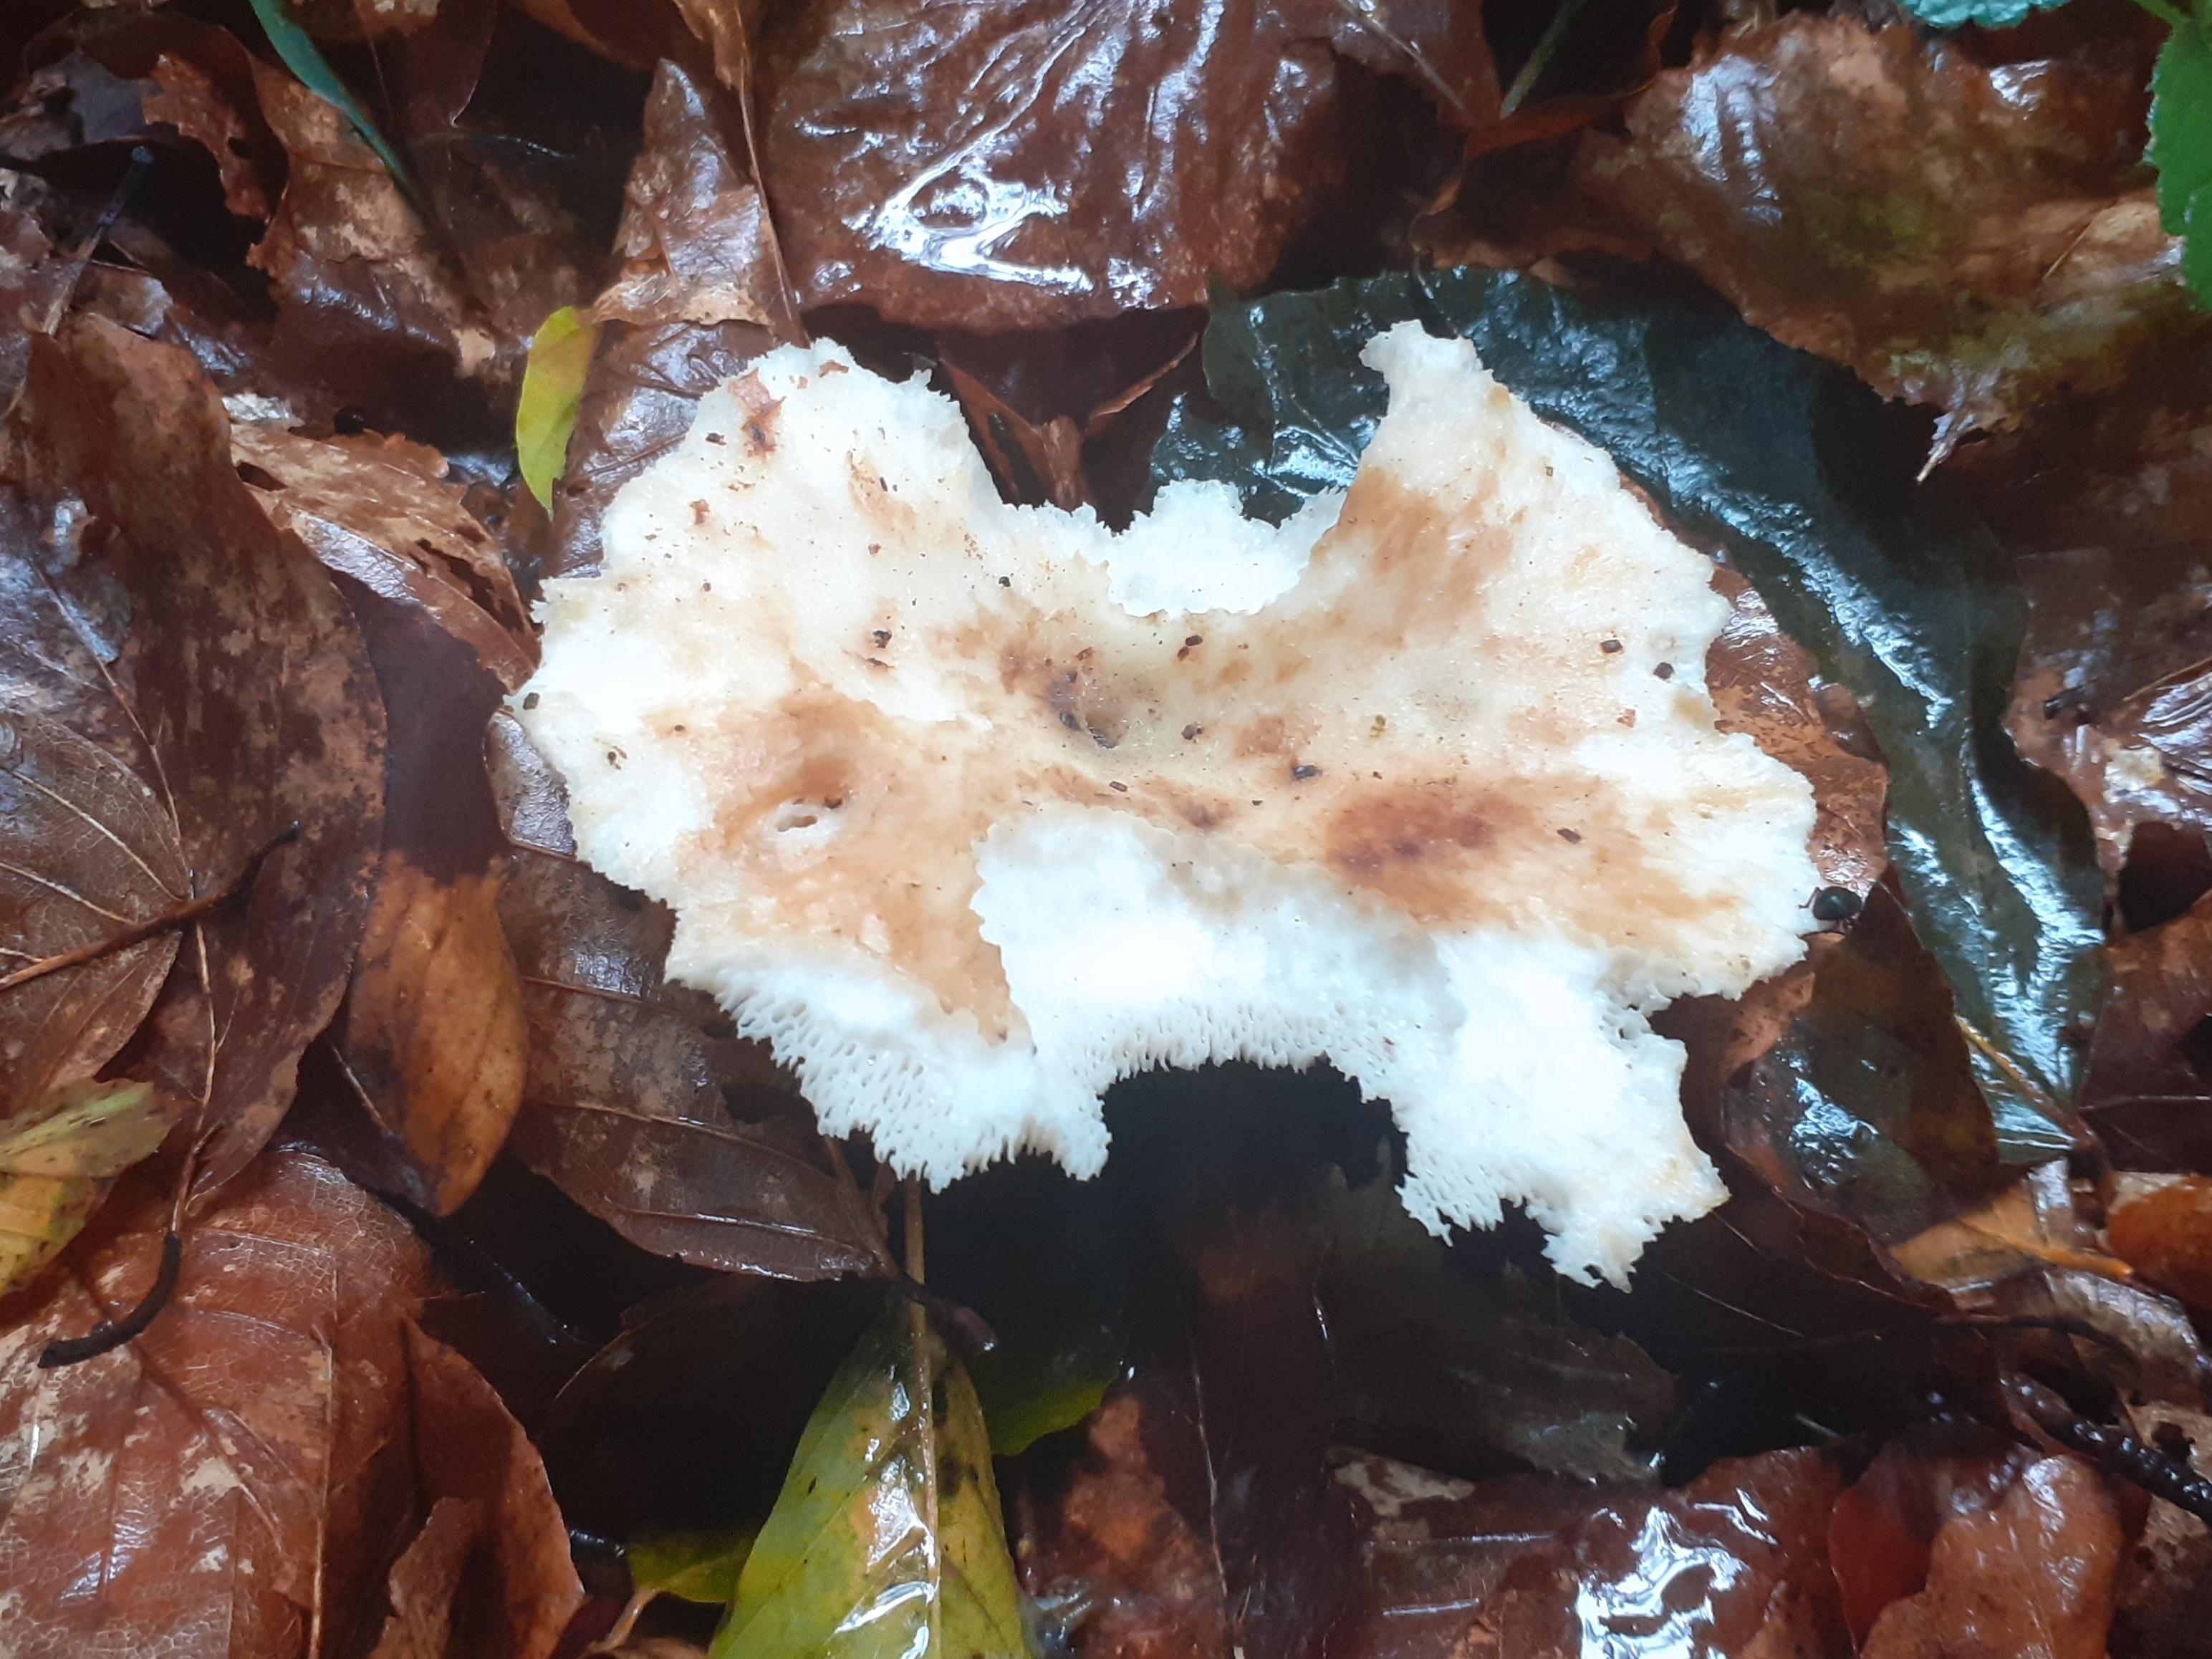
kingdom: Fungi
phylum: Basidiomycota
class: Agaricomycetes
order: Polyporales
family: Polyporaceae
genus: Polyporus
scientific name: Polyporus tuberaster
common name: knoldet stilkporesvamp
